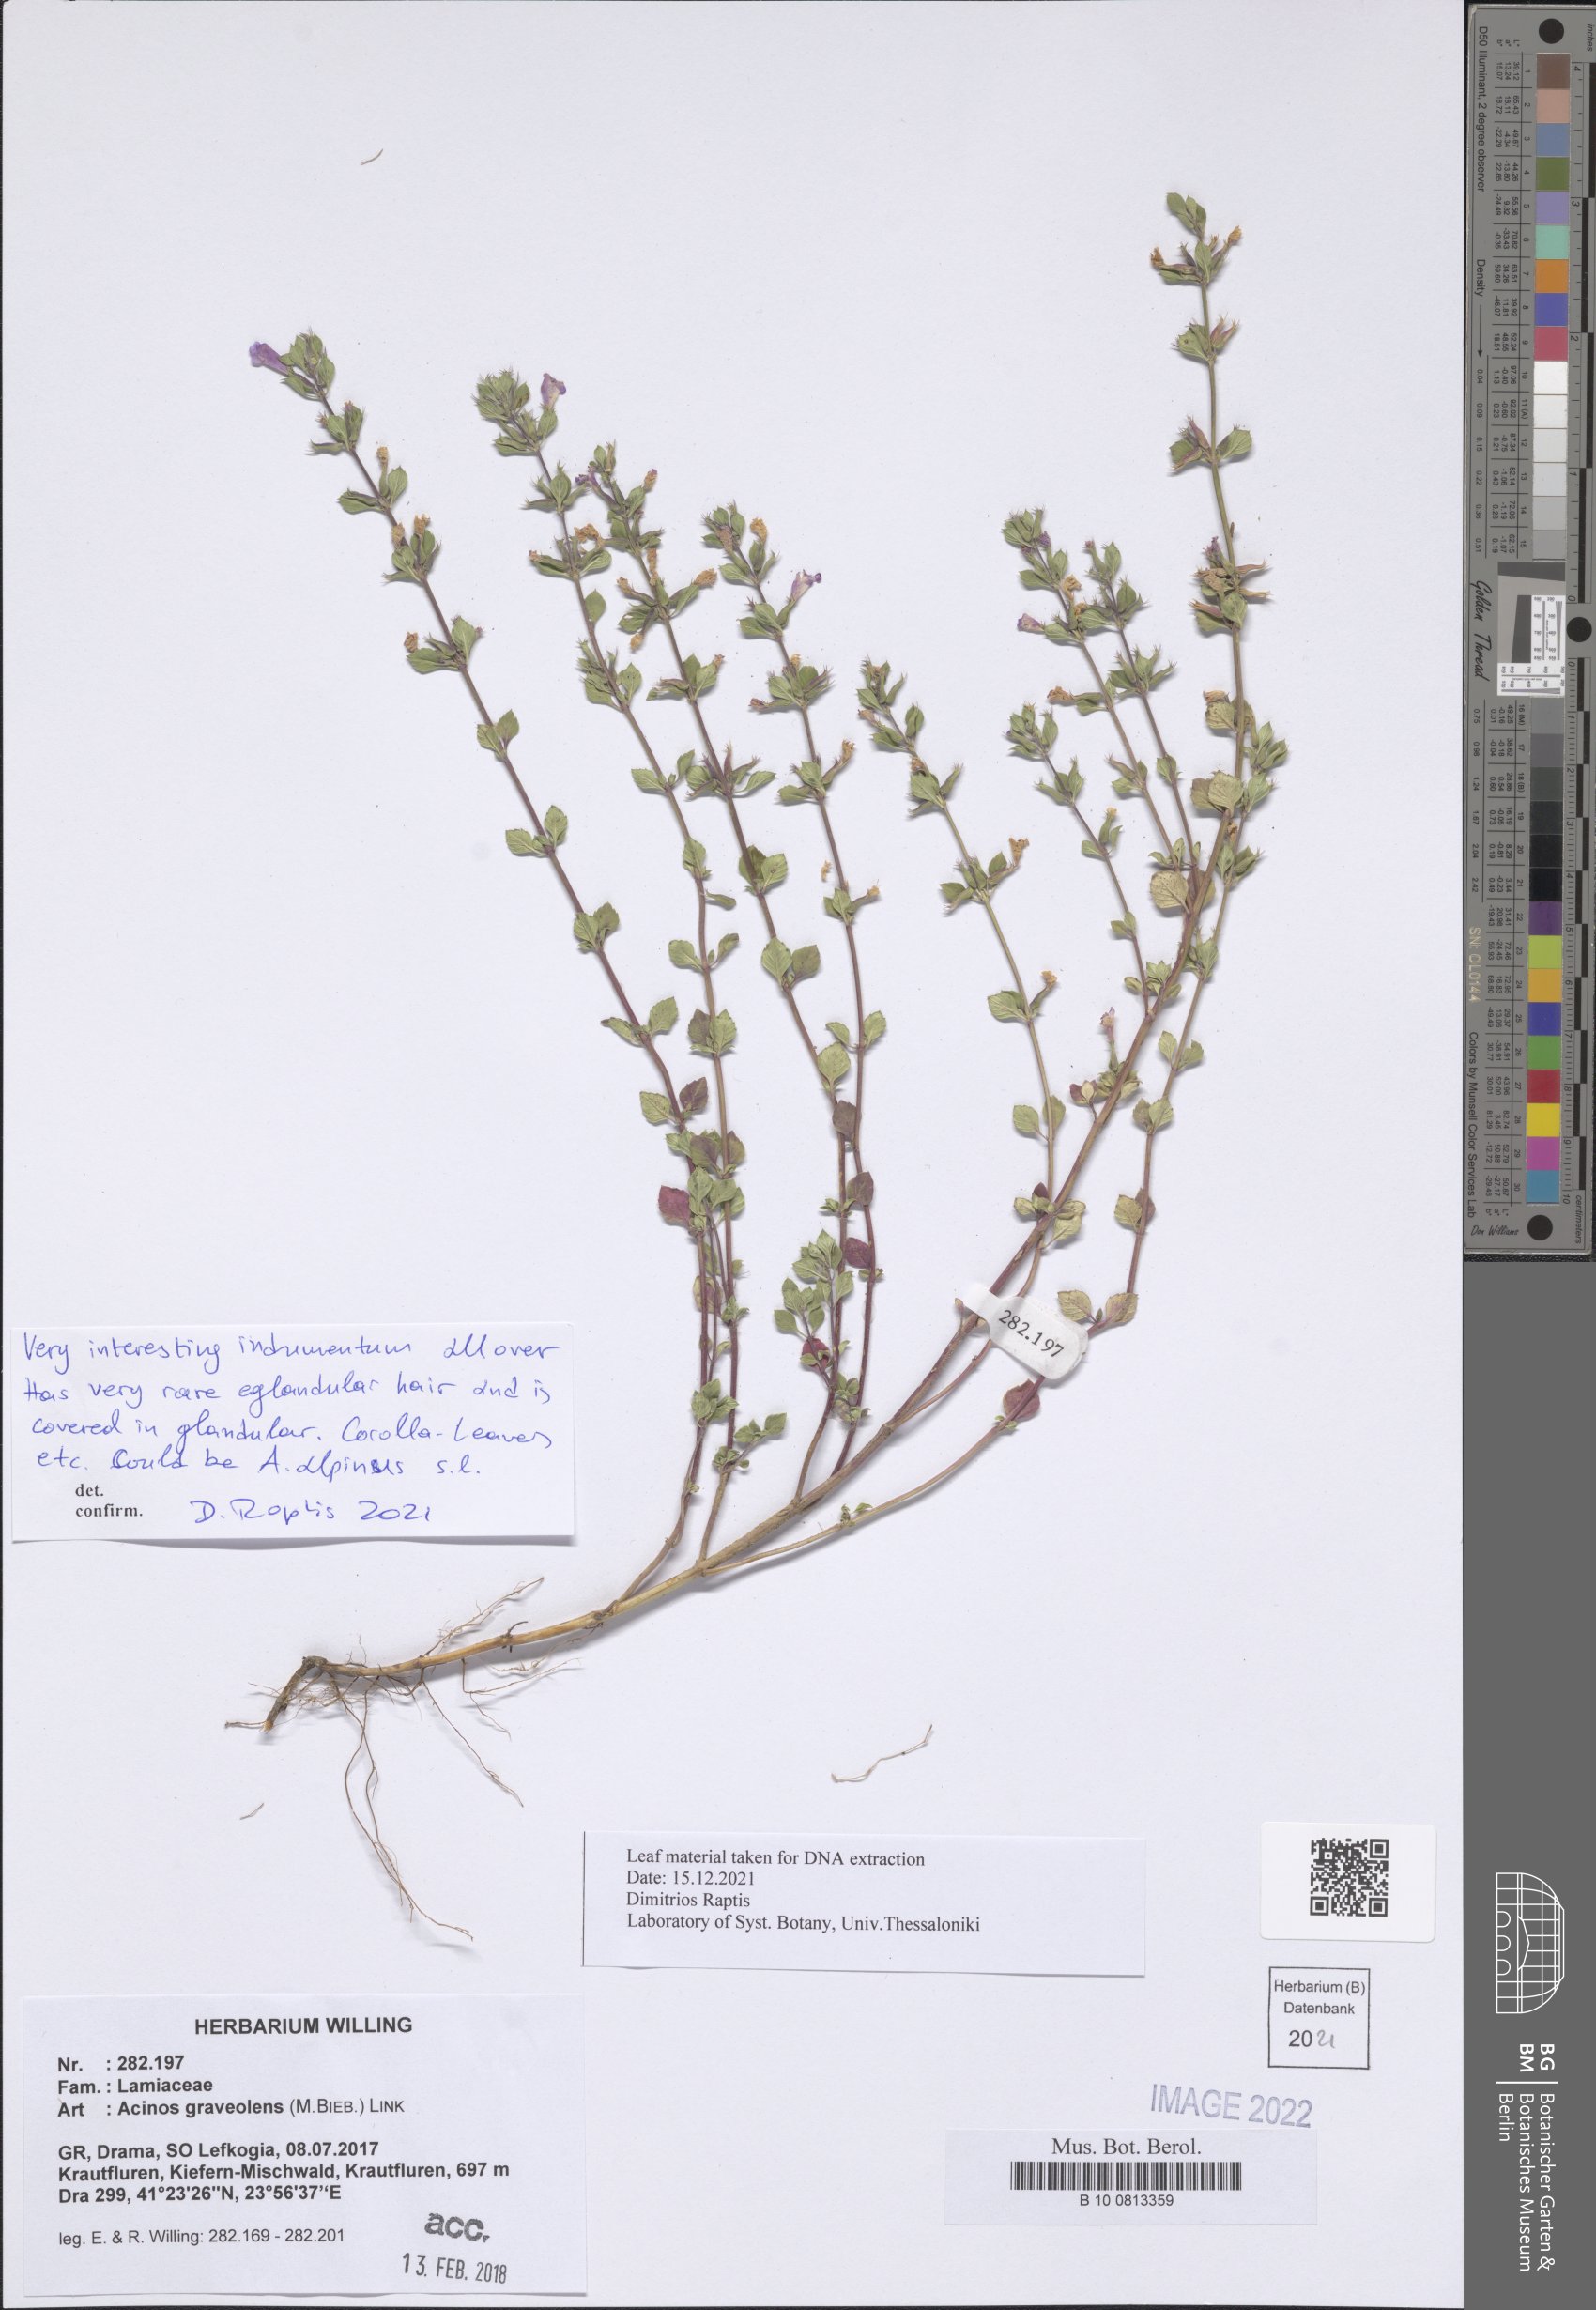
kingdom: Plantae
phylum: Tracheophyta
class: Magnoliopsida
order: Lamiales
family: Lamiaceae
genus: Clinopodium
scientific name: Clinopodium graveolens
